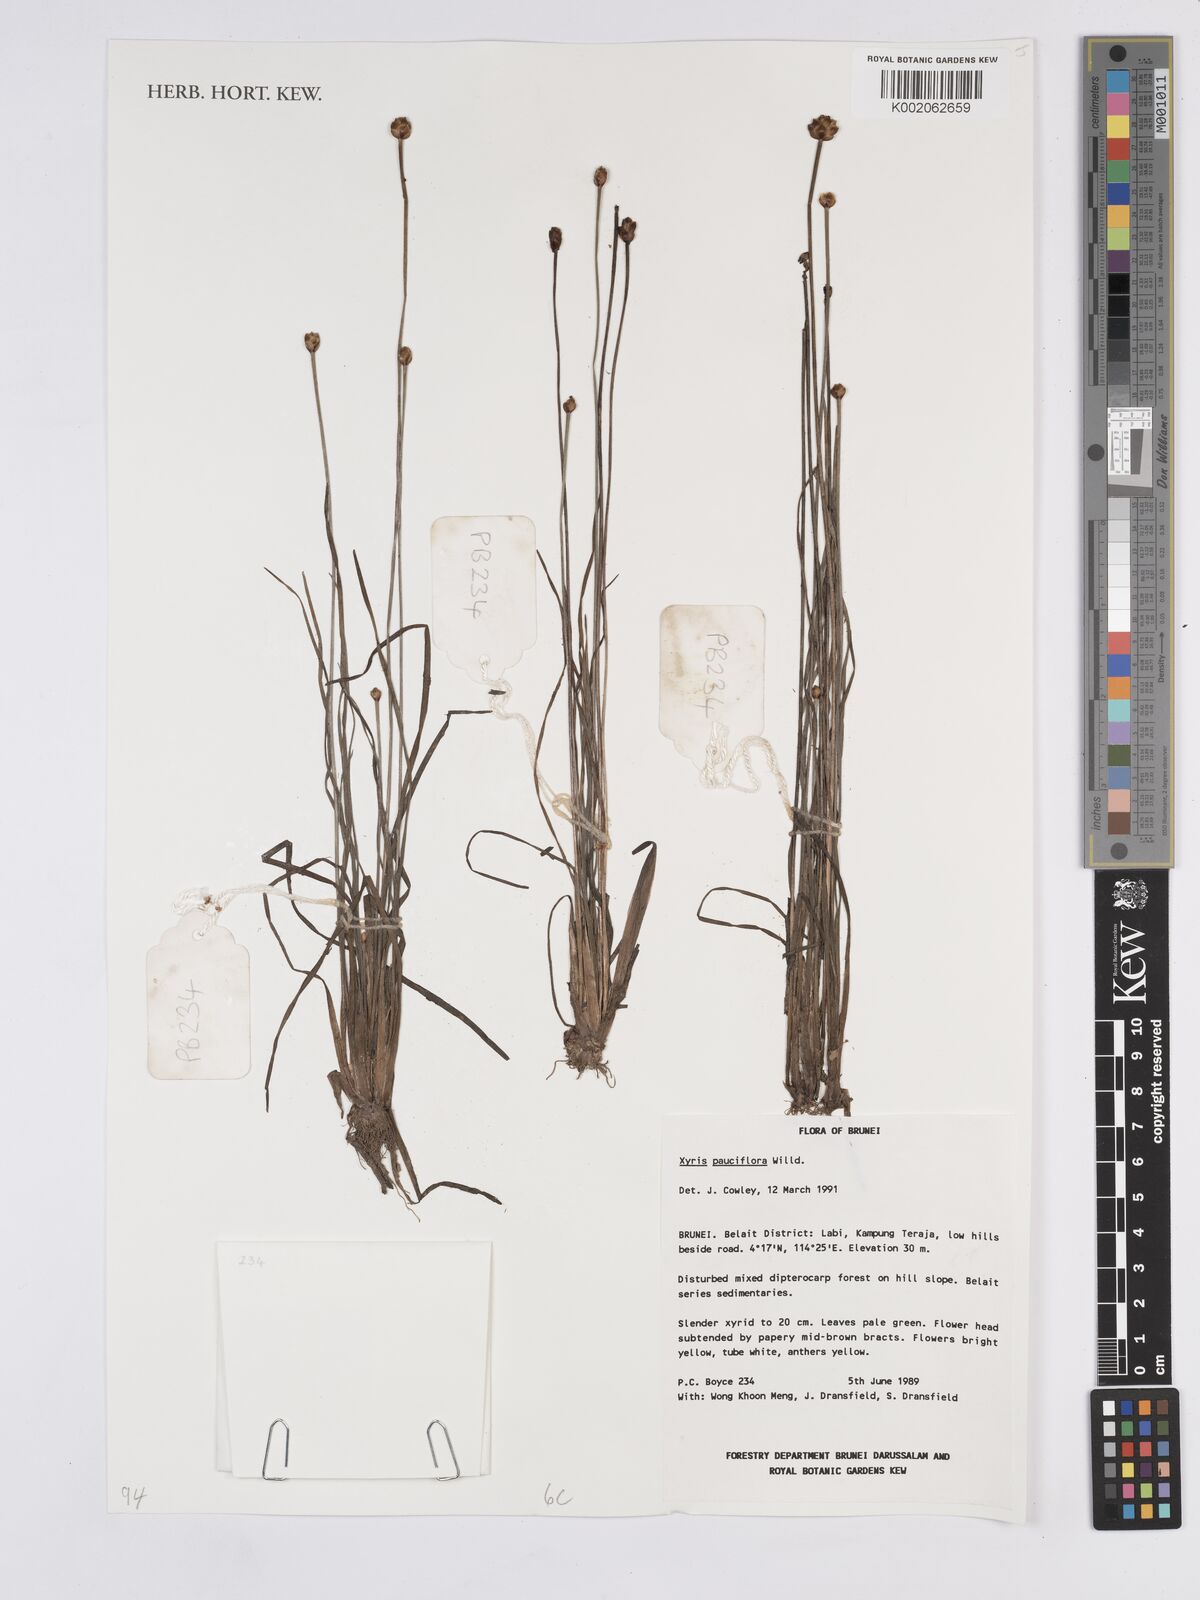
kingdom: Plantae
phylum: Tracheophyta
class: Liliopsida
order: Poales
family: Xyridaceae
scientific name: Xyridaceae
